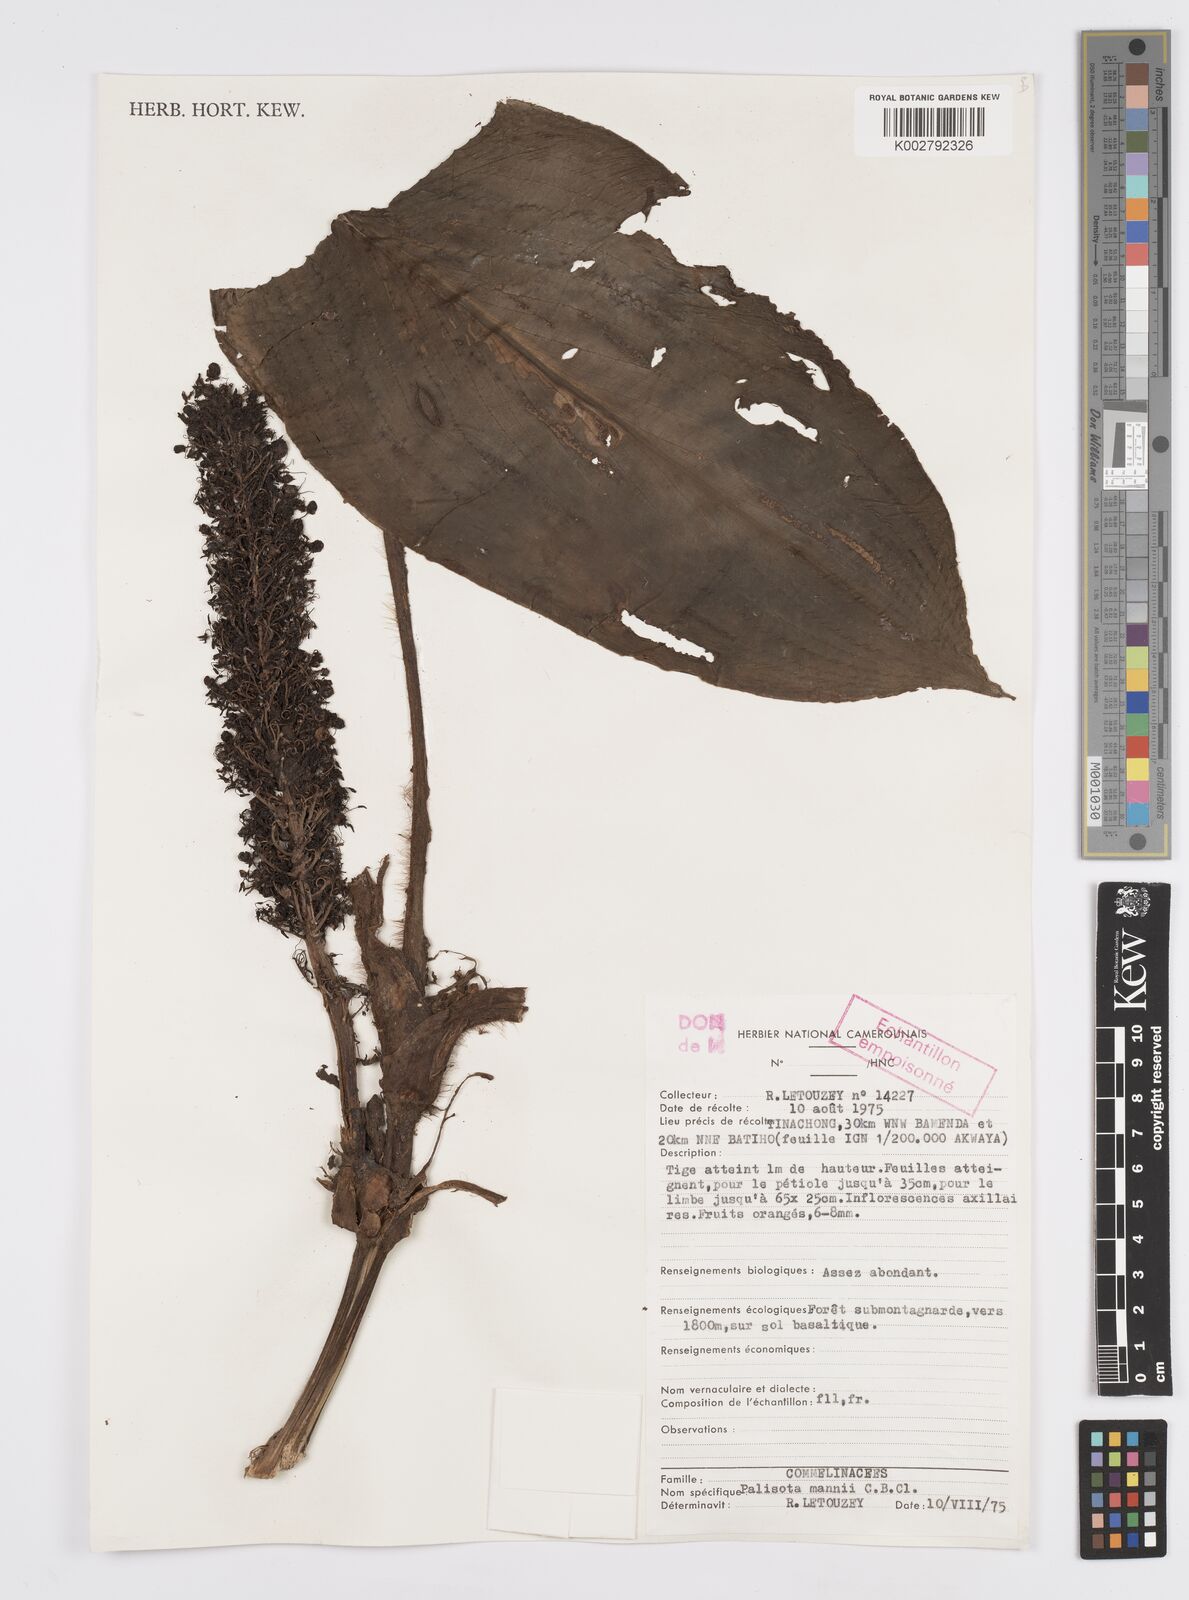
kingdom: Plantae
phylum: Tracheophyta
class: Liliopsida
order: Commelinales
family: Commelinaceae
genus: Palisota
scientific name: Palisota mannii
